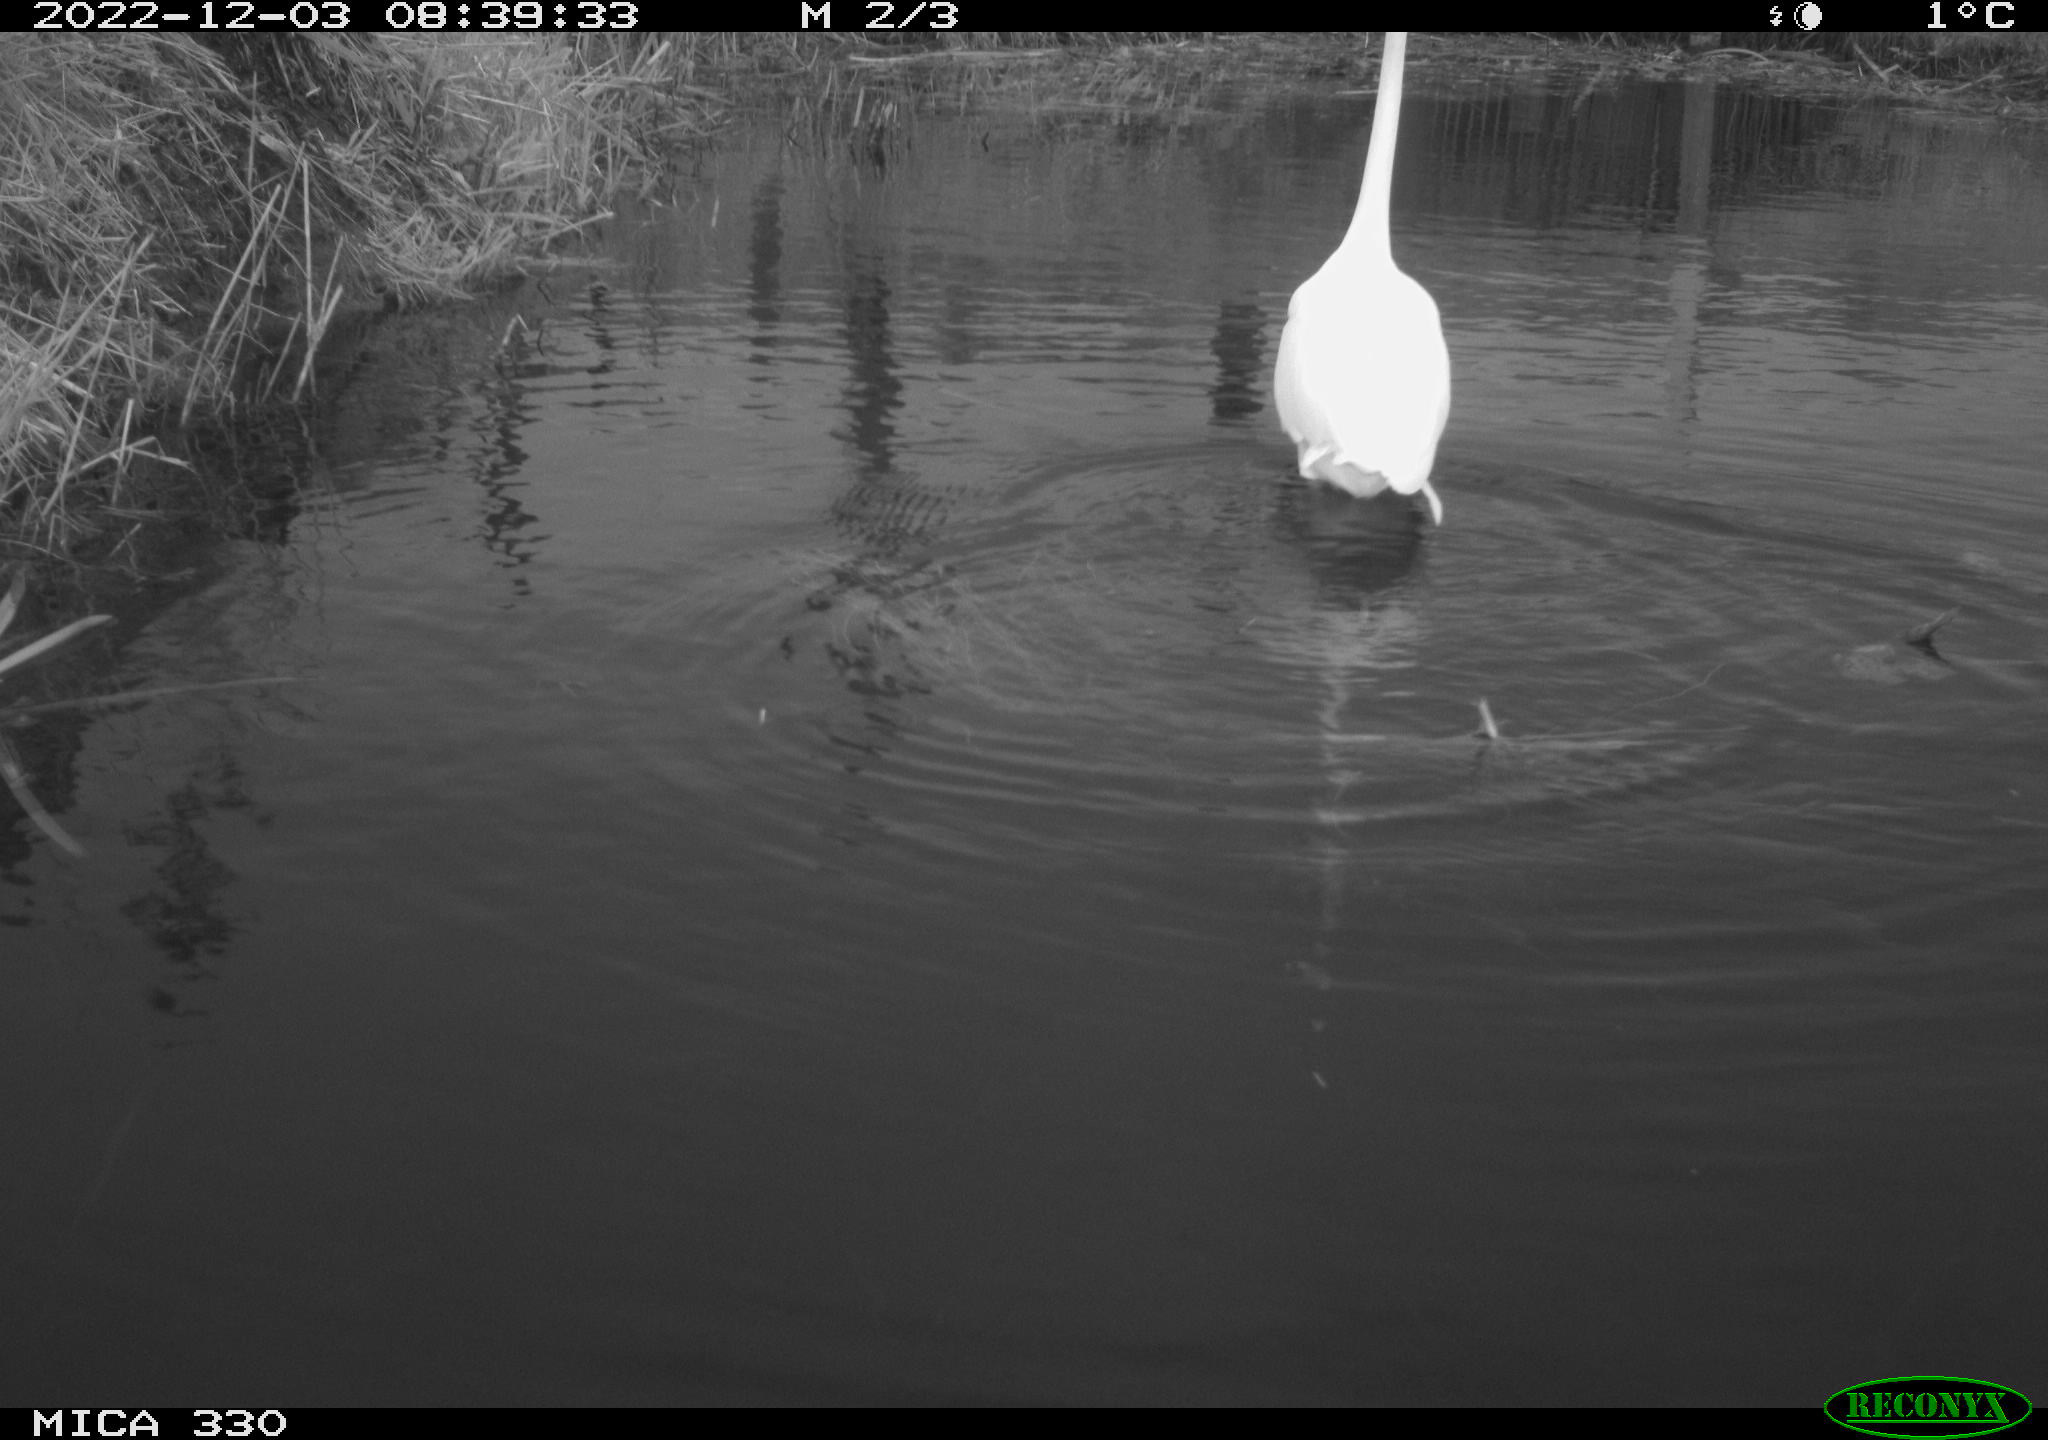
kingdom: Animalia
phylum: Chordata
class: Aves
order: Pelecaniformes
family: Ardeidae
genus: Ardea
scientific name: Ardea alba
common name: Great egret
